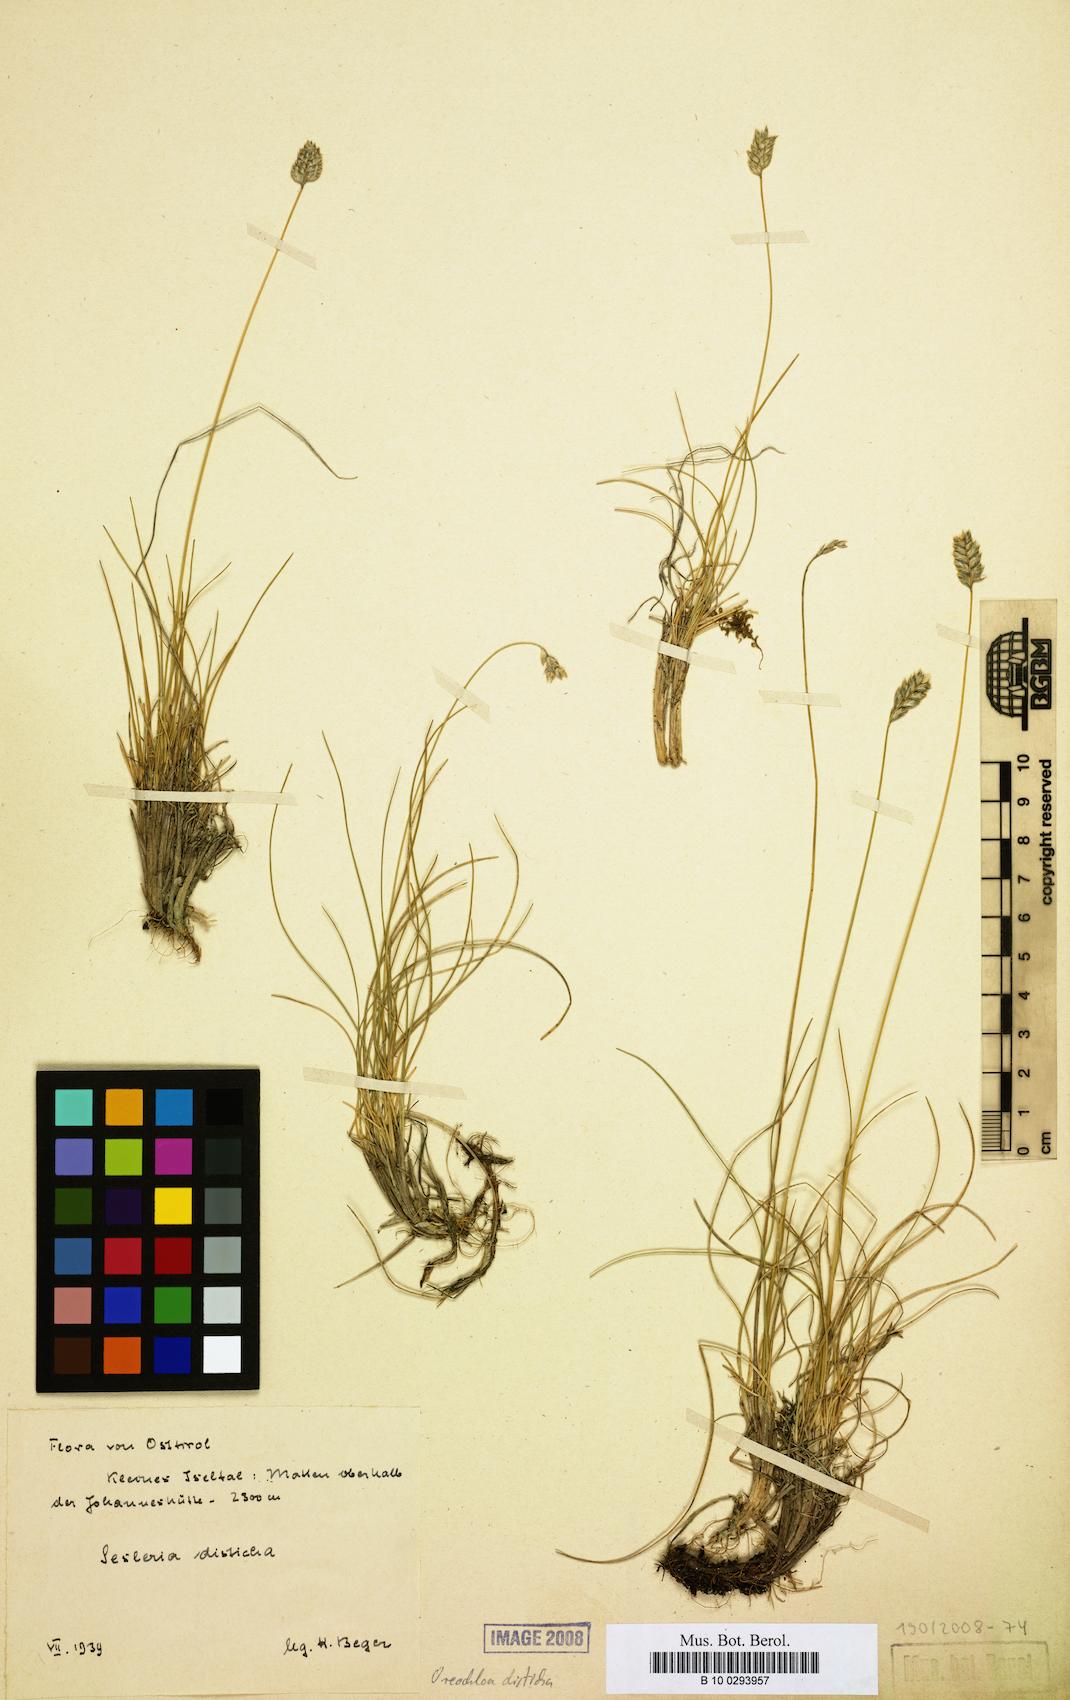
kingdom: Plantae
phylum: Tracheophyta
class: Liliopsida
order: Poales
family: Poaceae
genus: Oreochloa
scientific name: Oreochloa disticha
